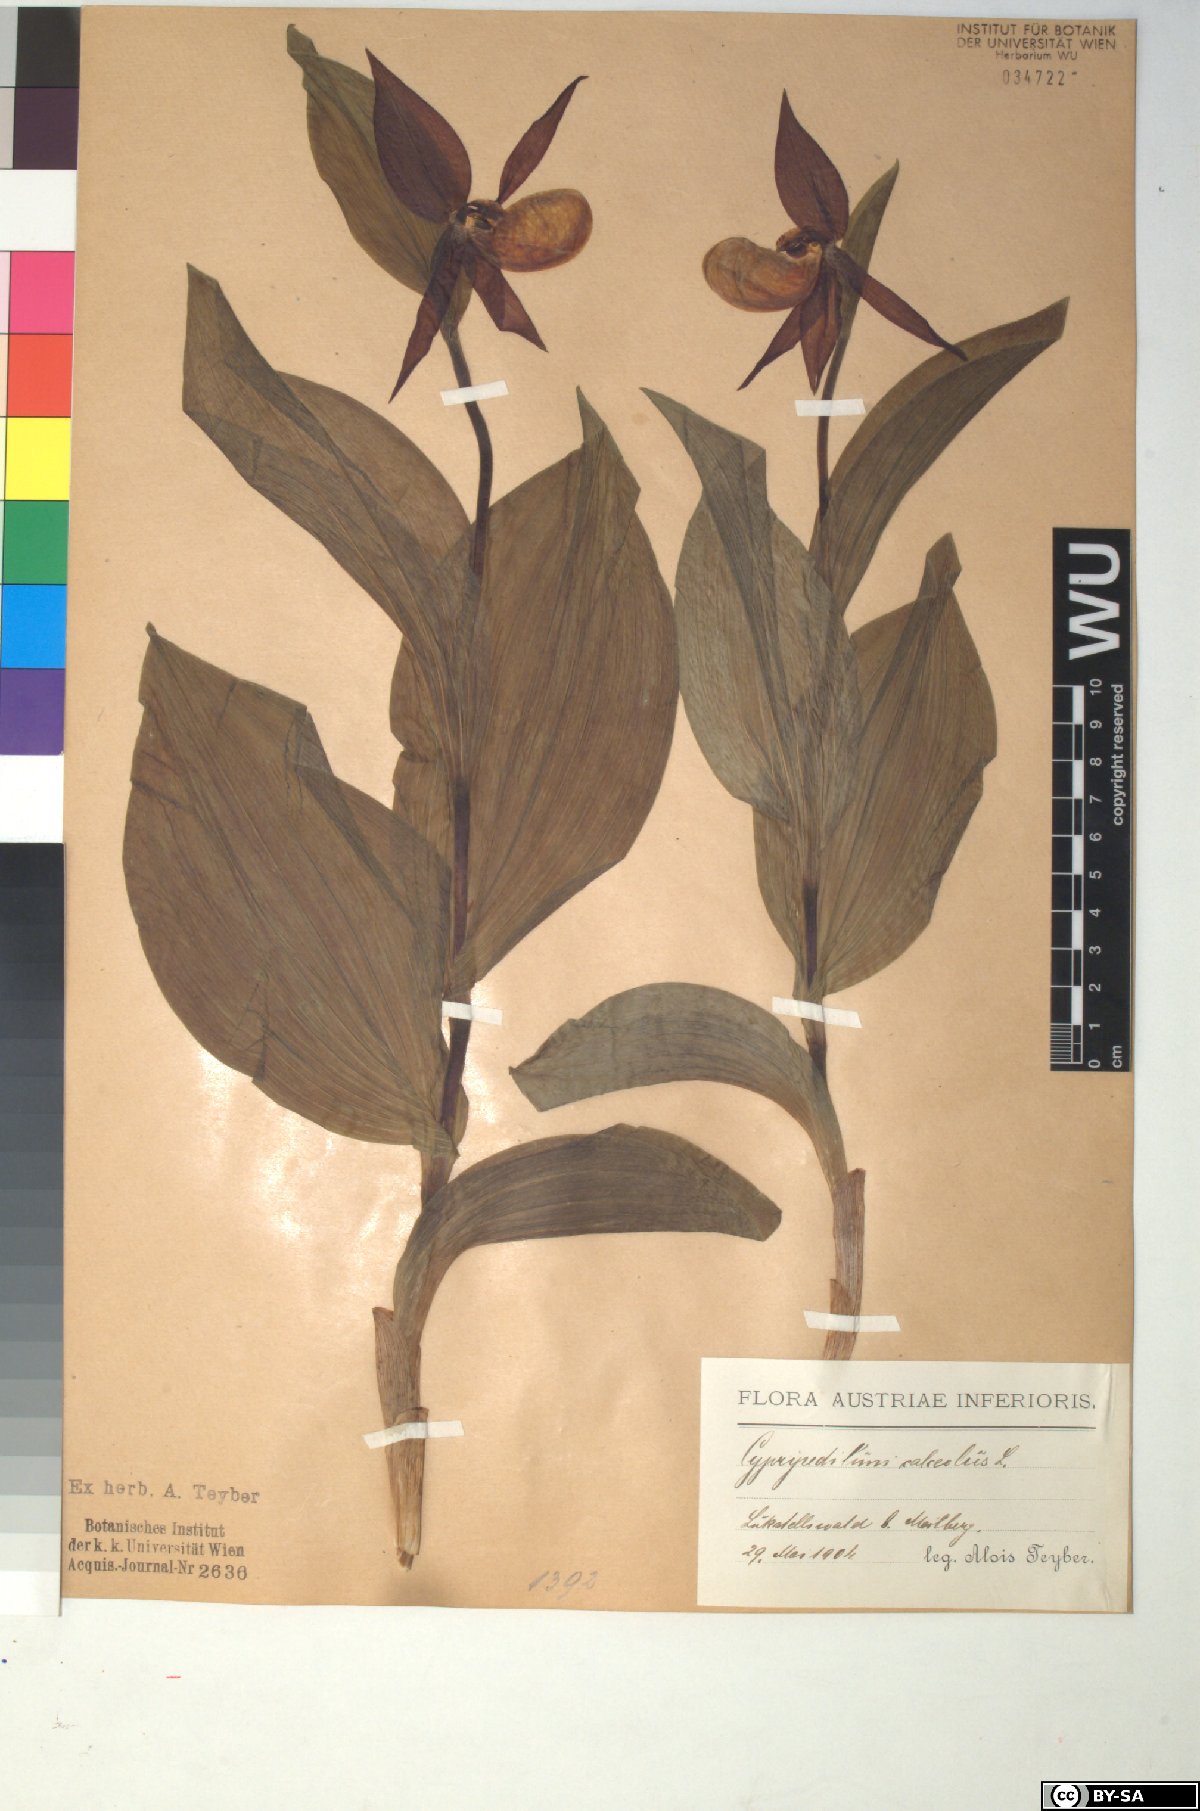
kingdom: Plantae
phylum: Tracheophyta
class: Liliopsida
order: Asparagales
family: Orchidaceae
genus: Cypripedium
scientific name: Cypripedium calceolus
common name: Lady's-slipper
